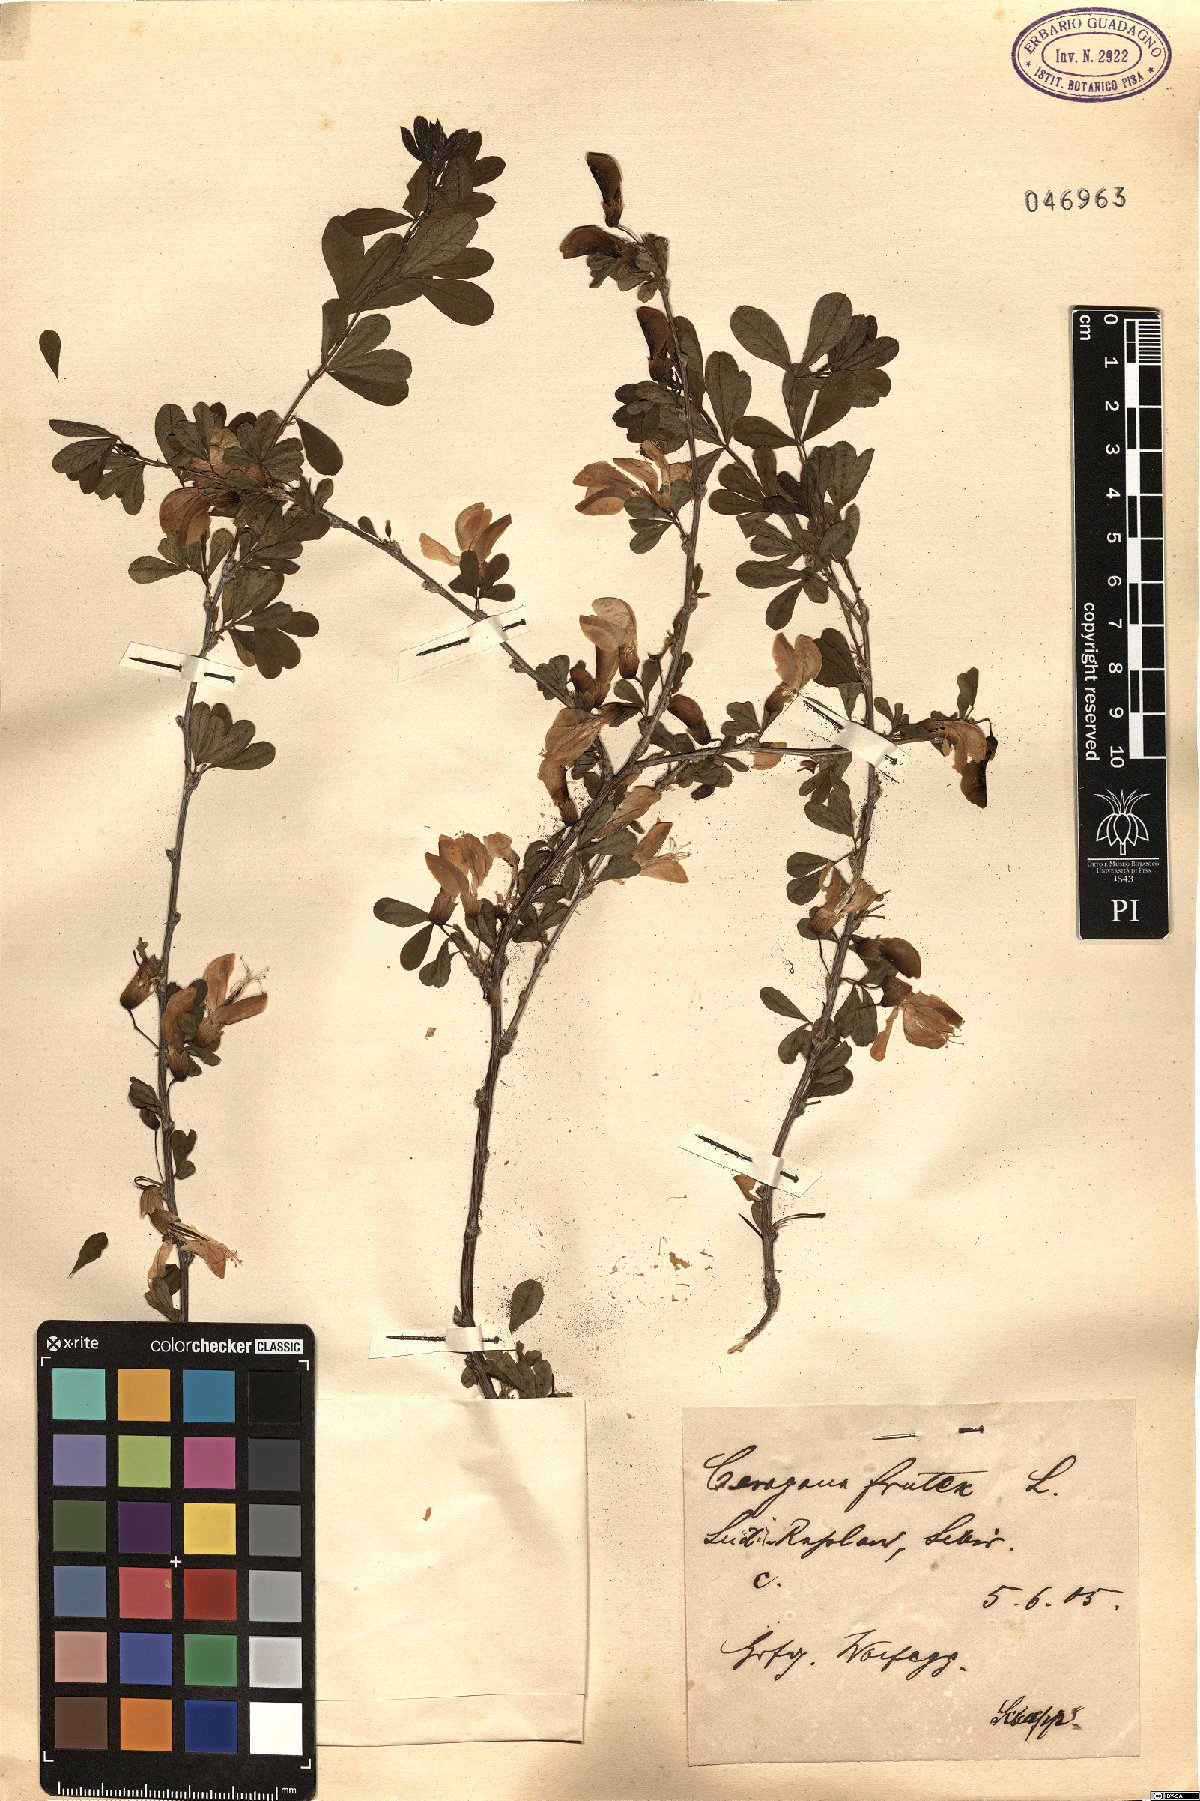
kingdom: Plantae
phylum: Tracheophyta
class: Magnoliopsida
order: Fabales
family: Fabaceae
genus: Caragana
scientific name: Caragana frutex
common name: Russian peashrub
